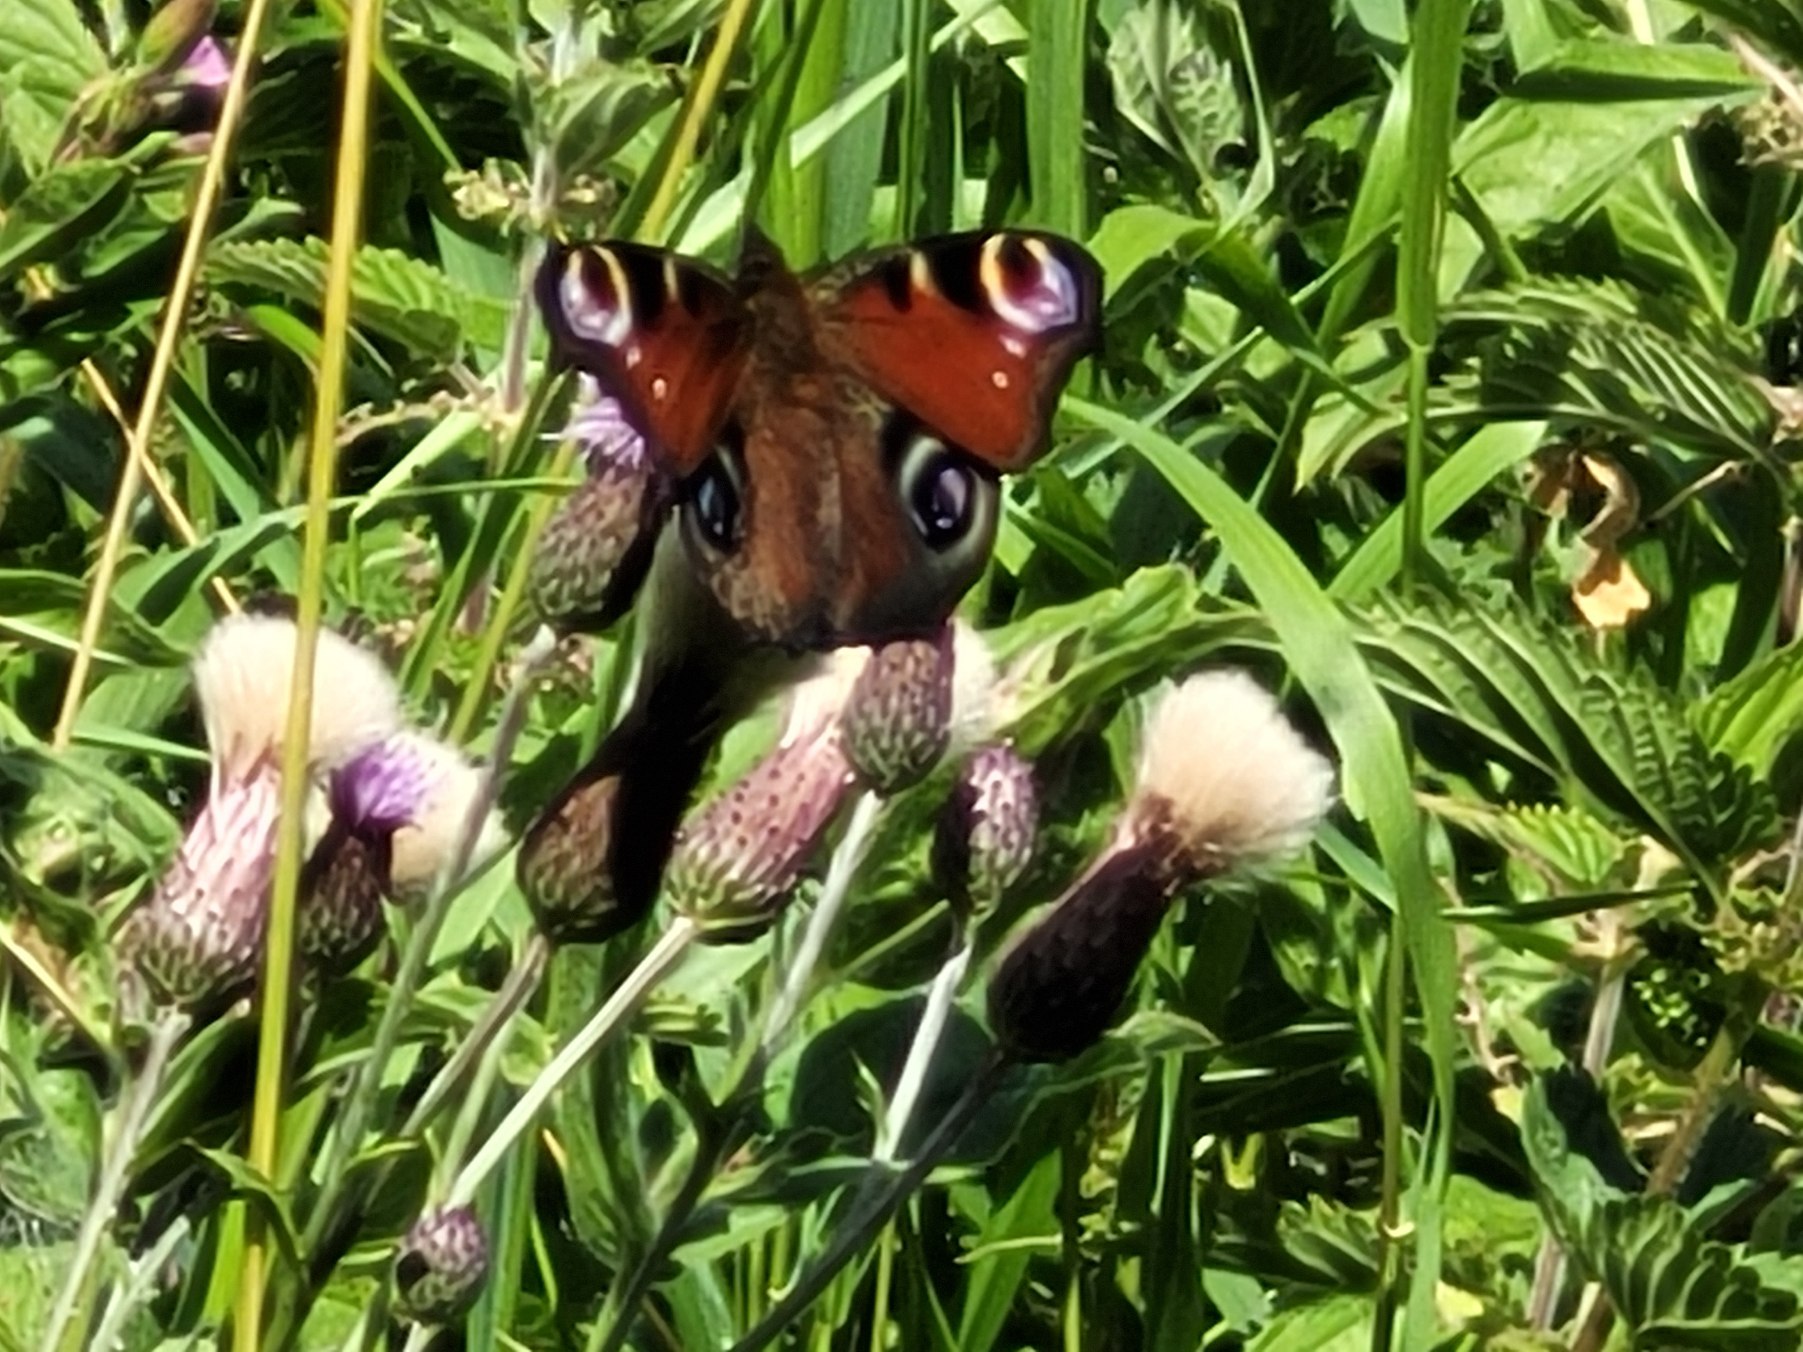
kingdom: Animalia
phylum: Arthropoda
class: Insecta
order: Lepidoptera
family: Nymphalidae
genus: Aglais
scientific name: Aglais io
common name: Dagpåfugleøje
